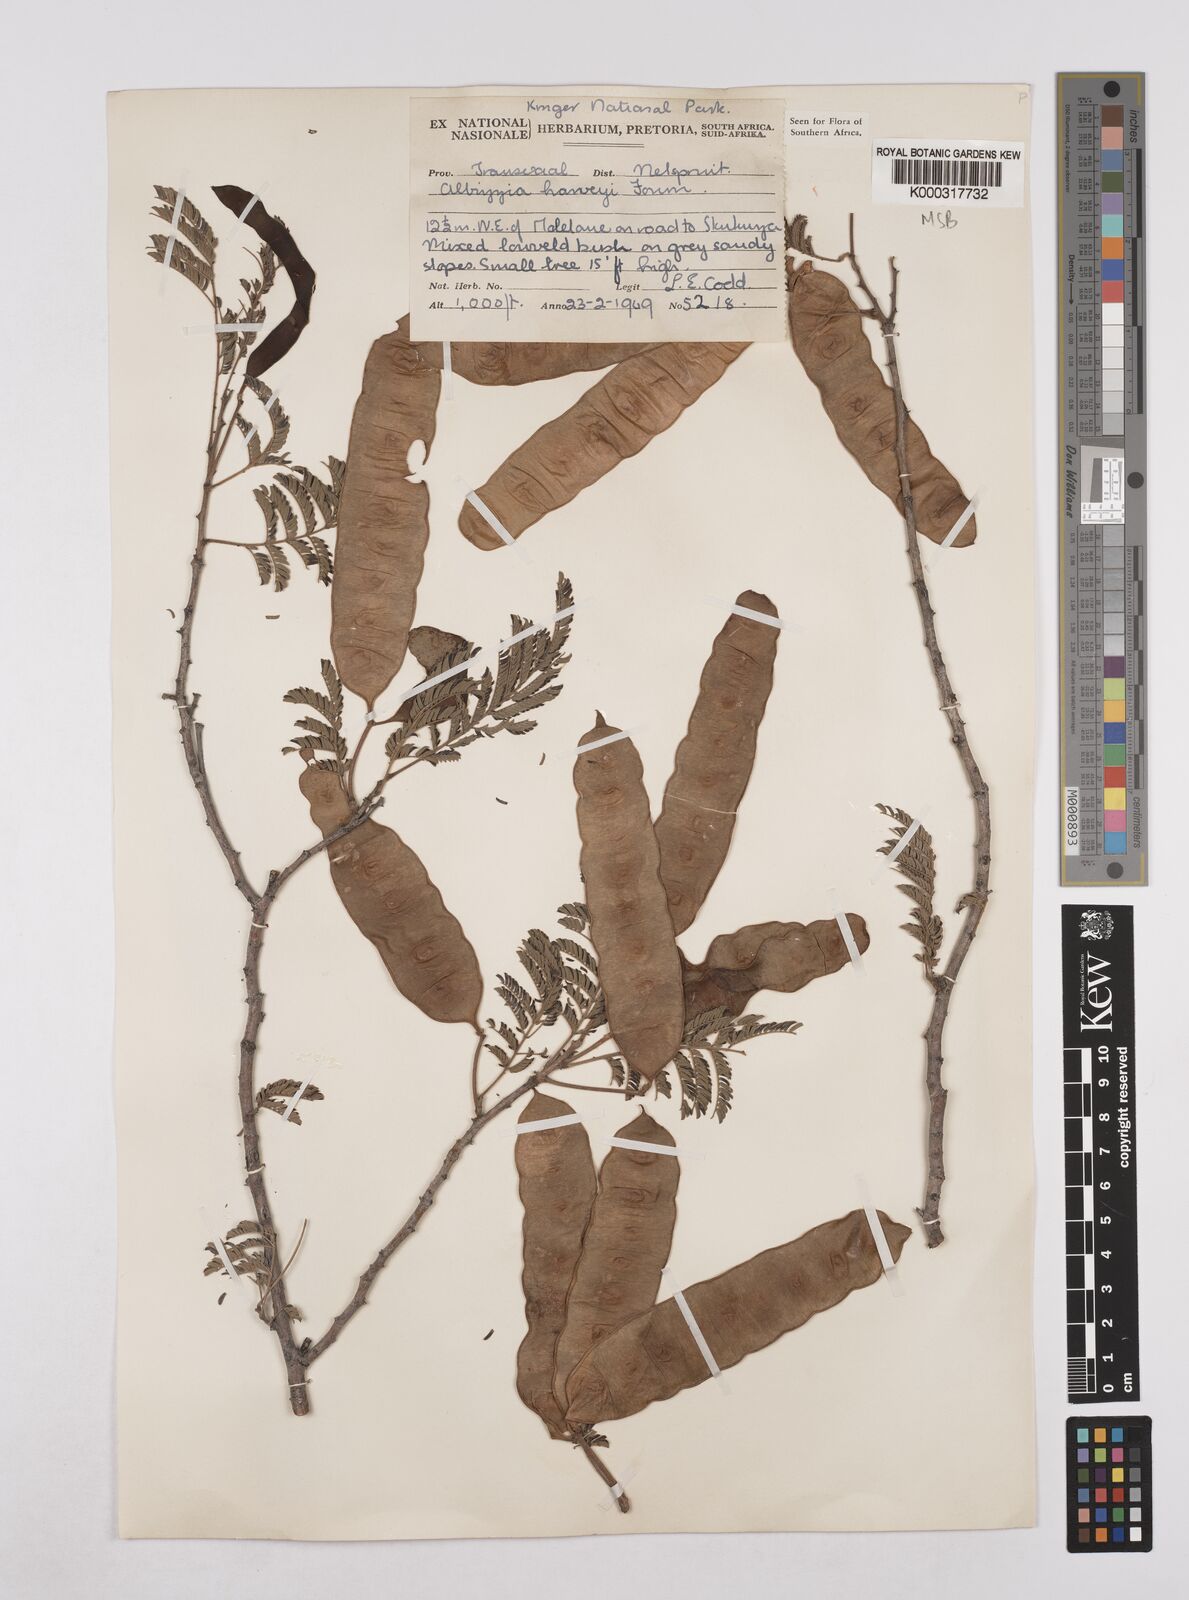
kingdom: Plantae
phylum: Tracheophyta
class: Magnoliopsida
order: Fabales
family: Fabaceae
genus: Albizia
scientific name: Albizia harveyi
